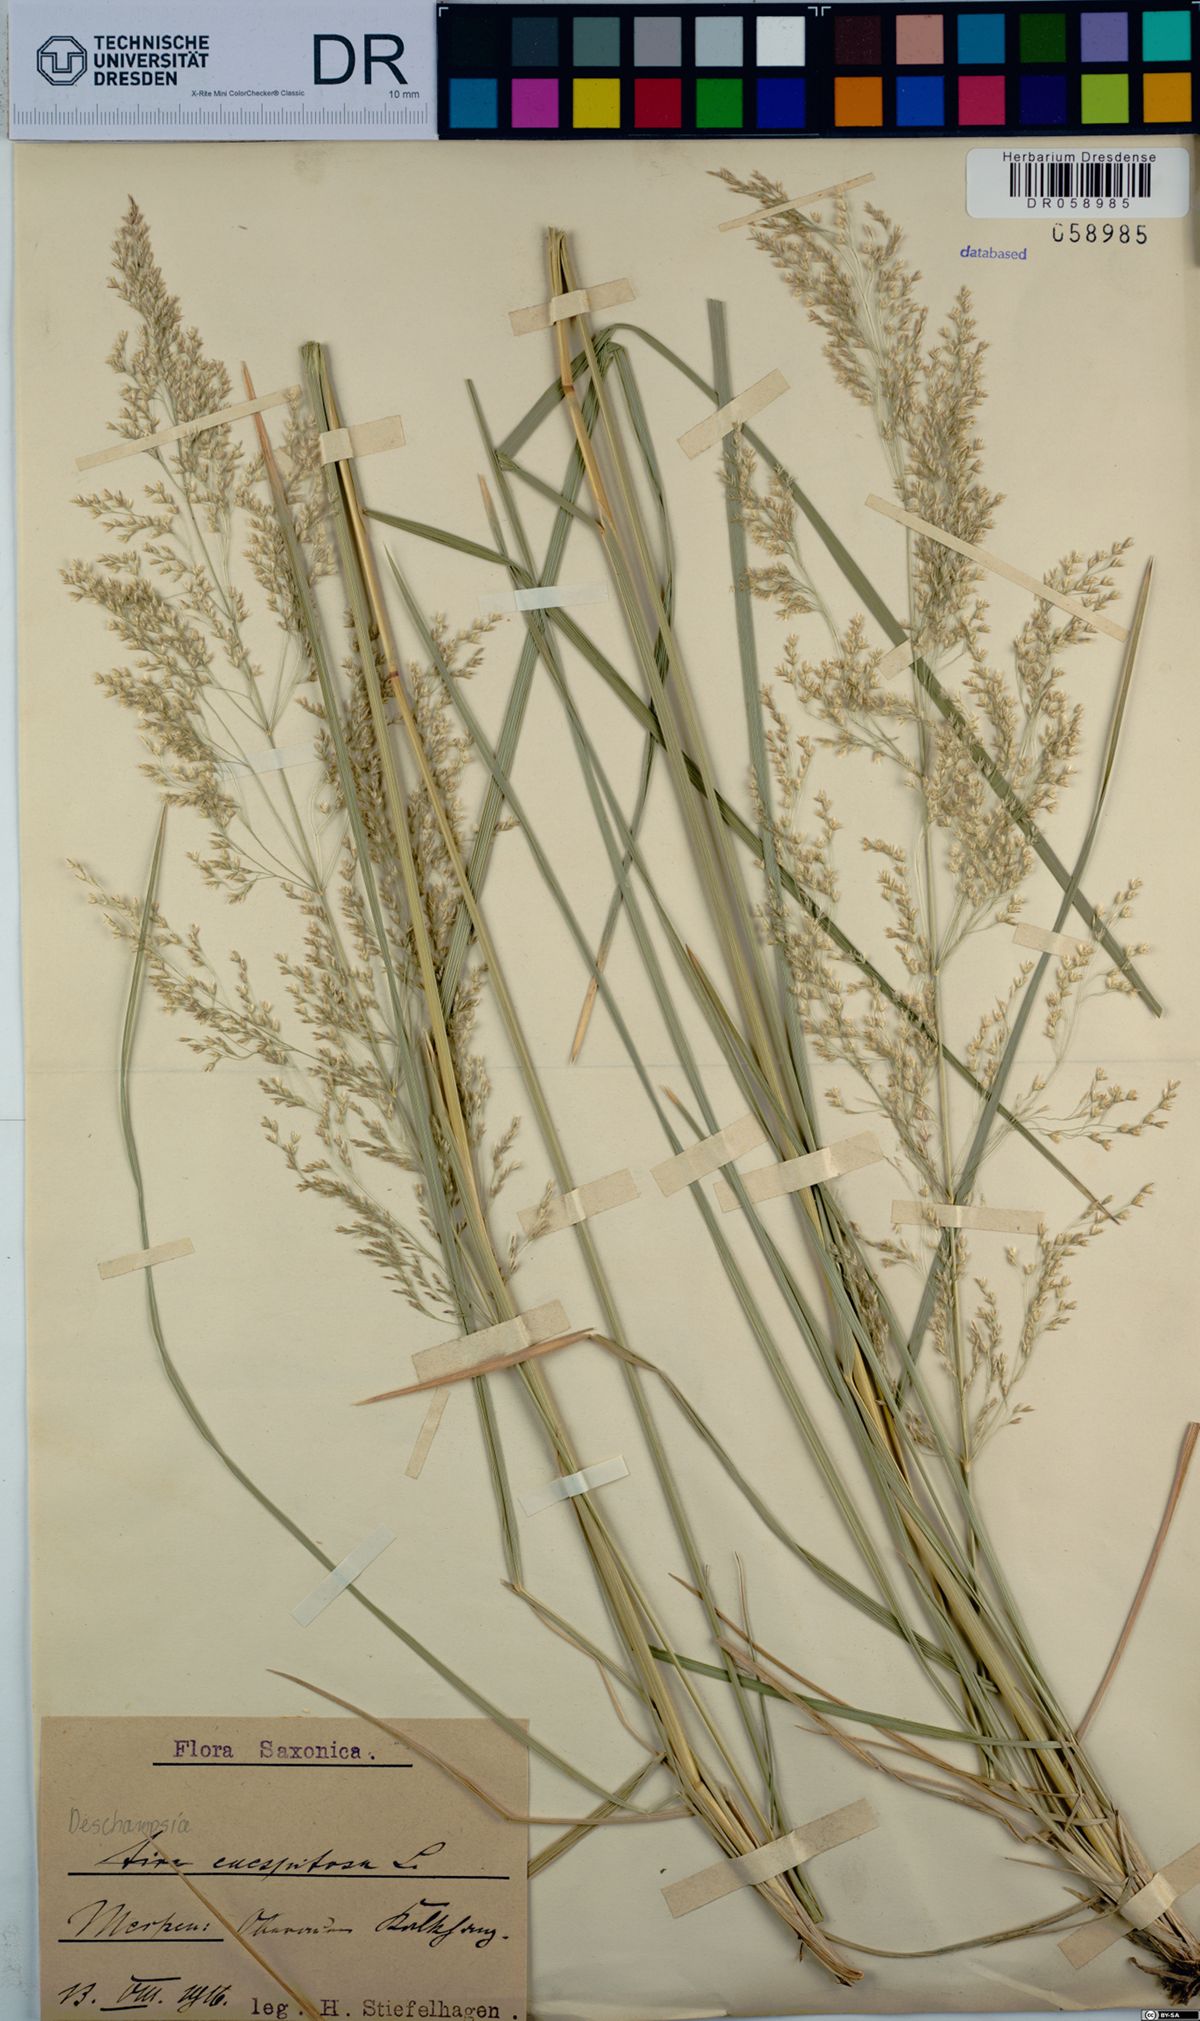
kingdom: Plantae
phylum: Tracheophyta
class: Liliopsida
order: Poales
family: Poaceae
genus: Deschampsia
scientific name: Deschampsia cespitosa
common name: Tufted hair-grass
